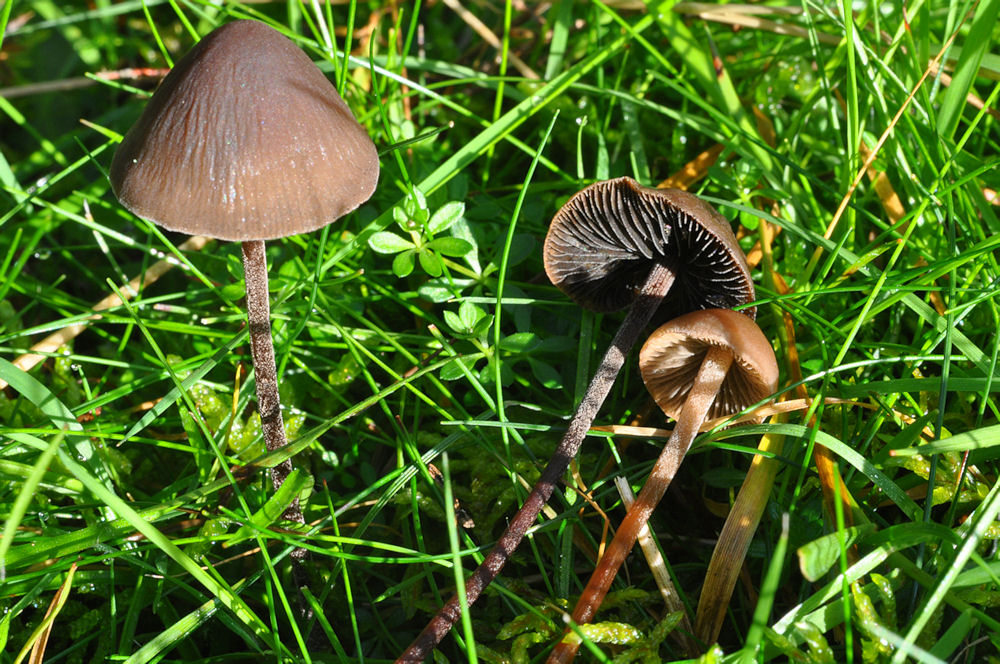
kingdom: Fungi
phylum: Basidiomycota
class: Agaricomycetes
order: Agaricales
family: Bolbitiaceae
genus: Panaeolus
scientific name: Panaeolus acuminatus
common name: høj glanshat
